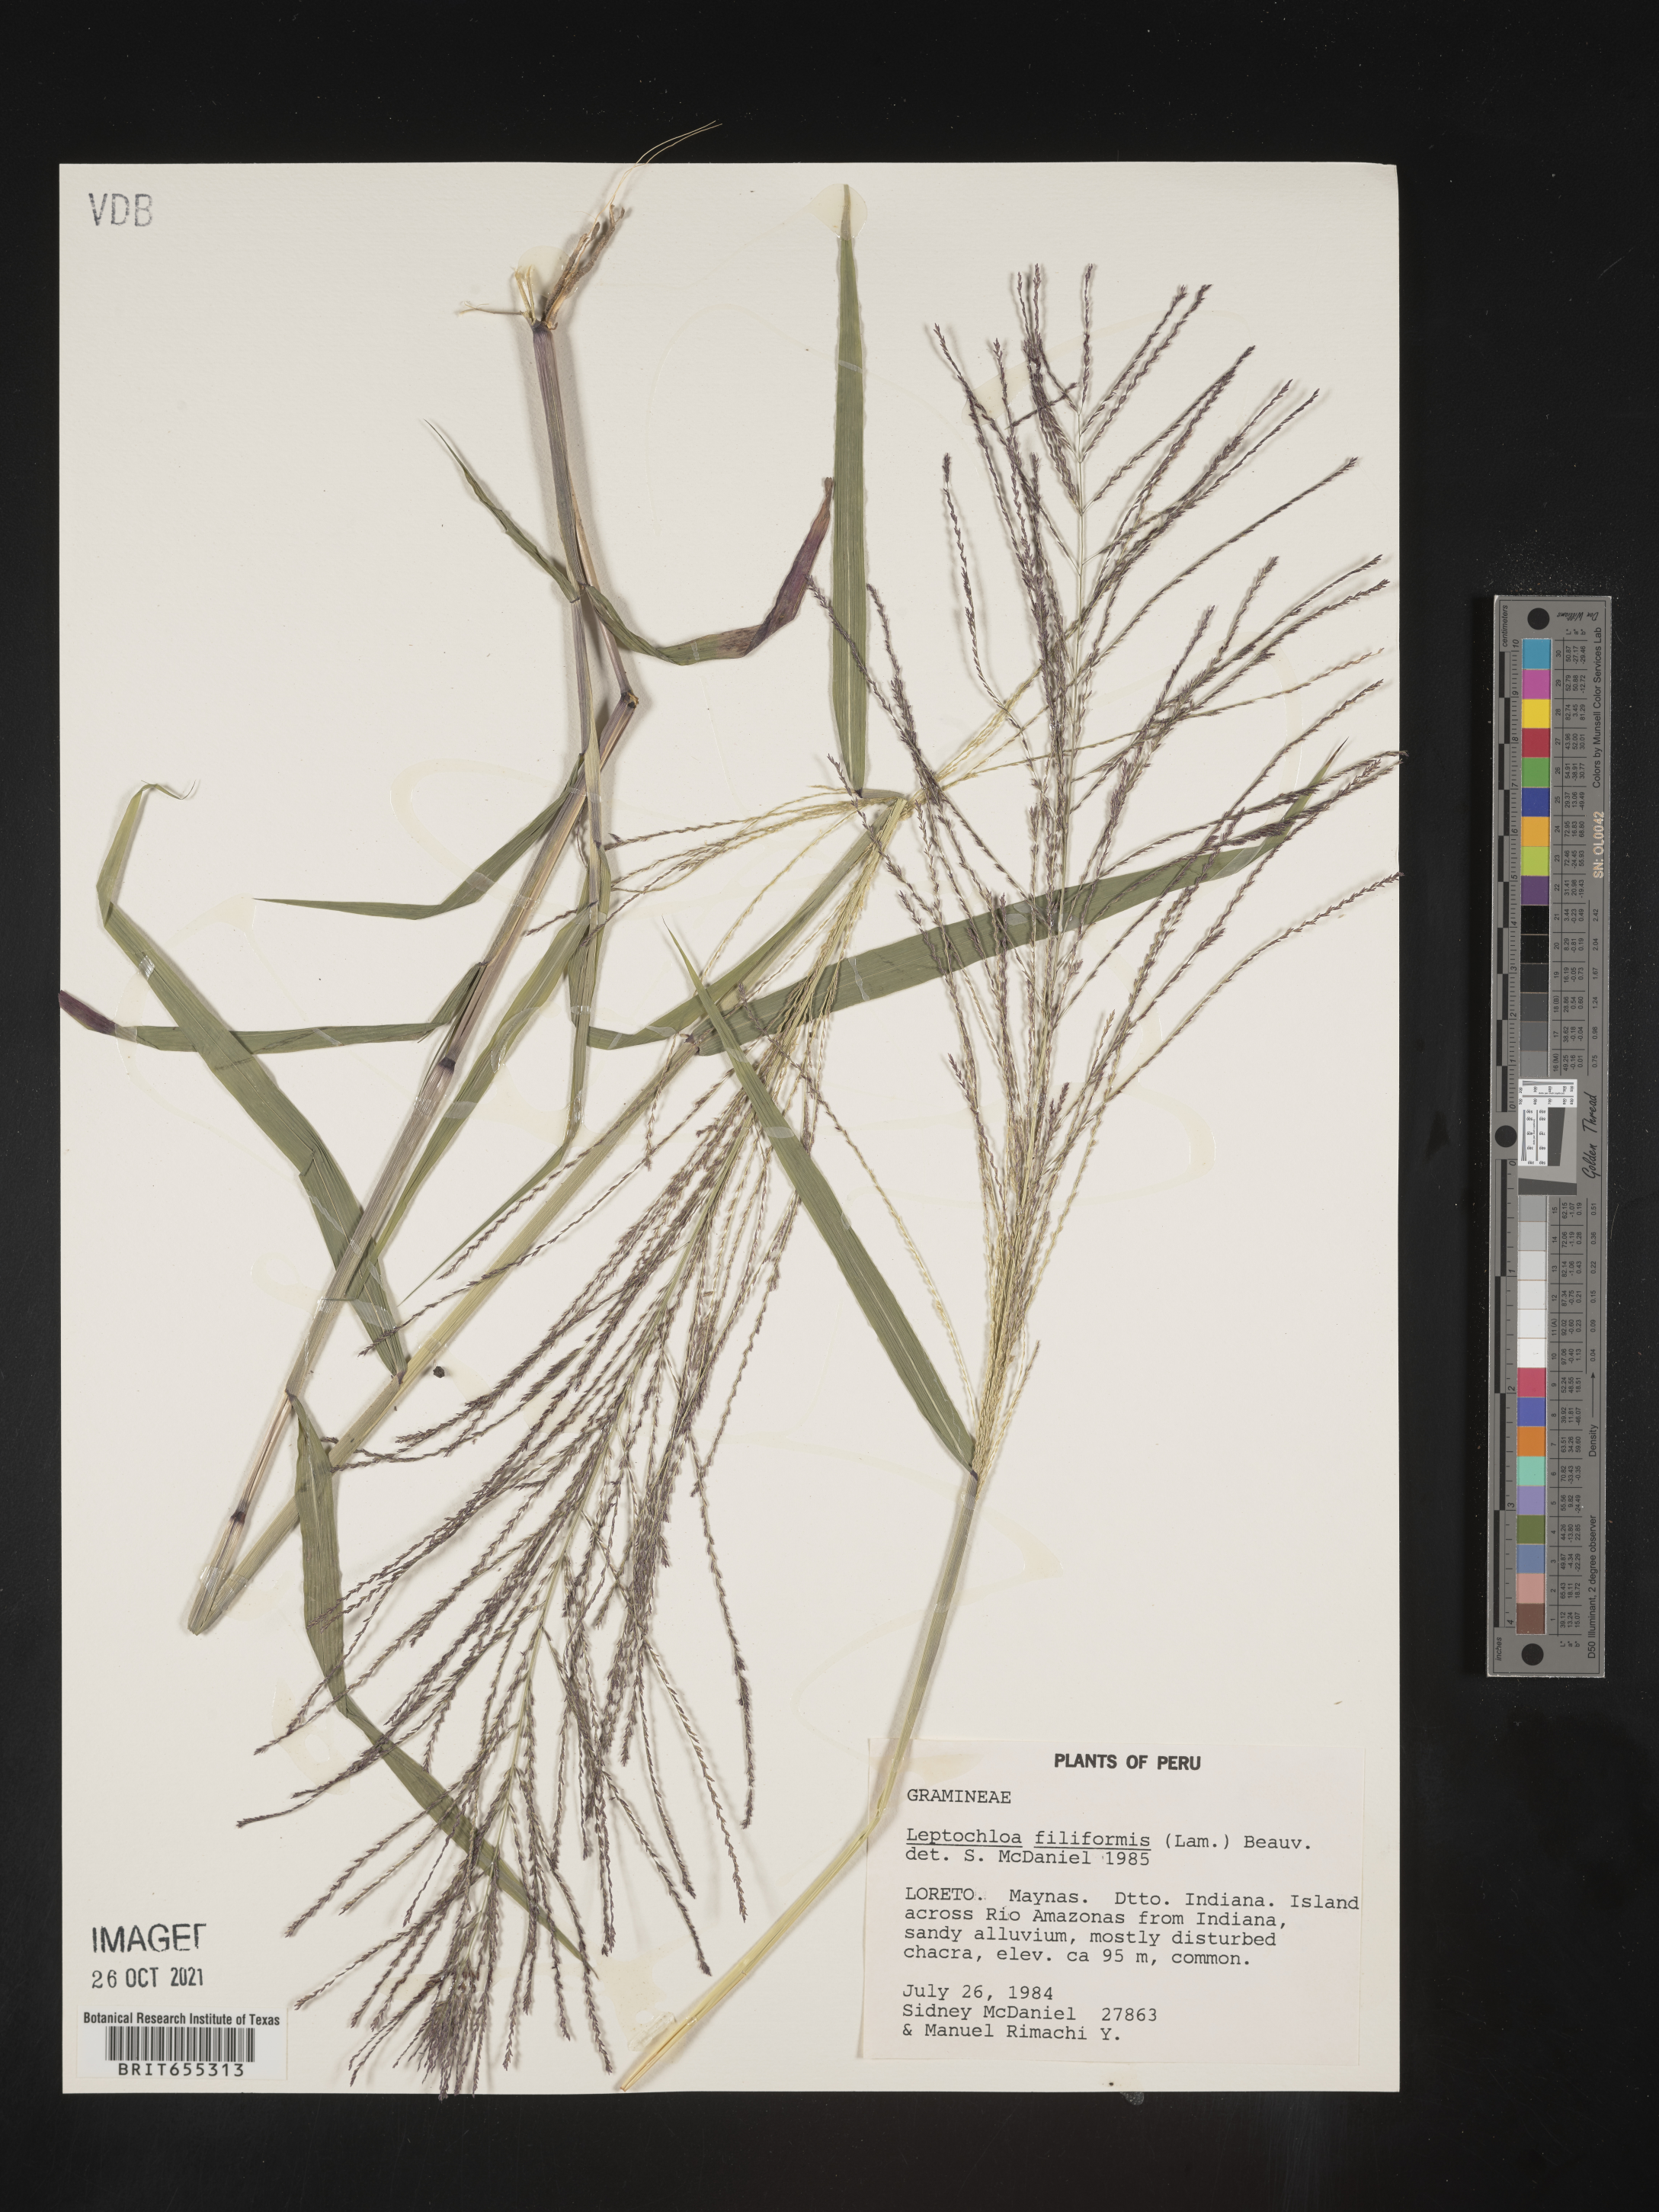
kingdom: Plantae
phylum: Tracheophyta
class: Liliopsida
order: Poales
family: Poaceae
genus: Digitaria
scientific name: Digitaria
